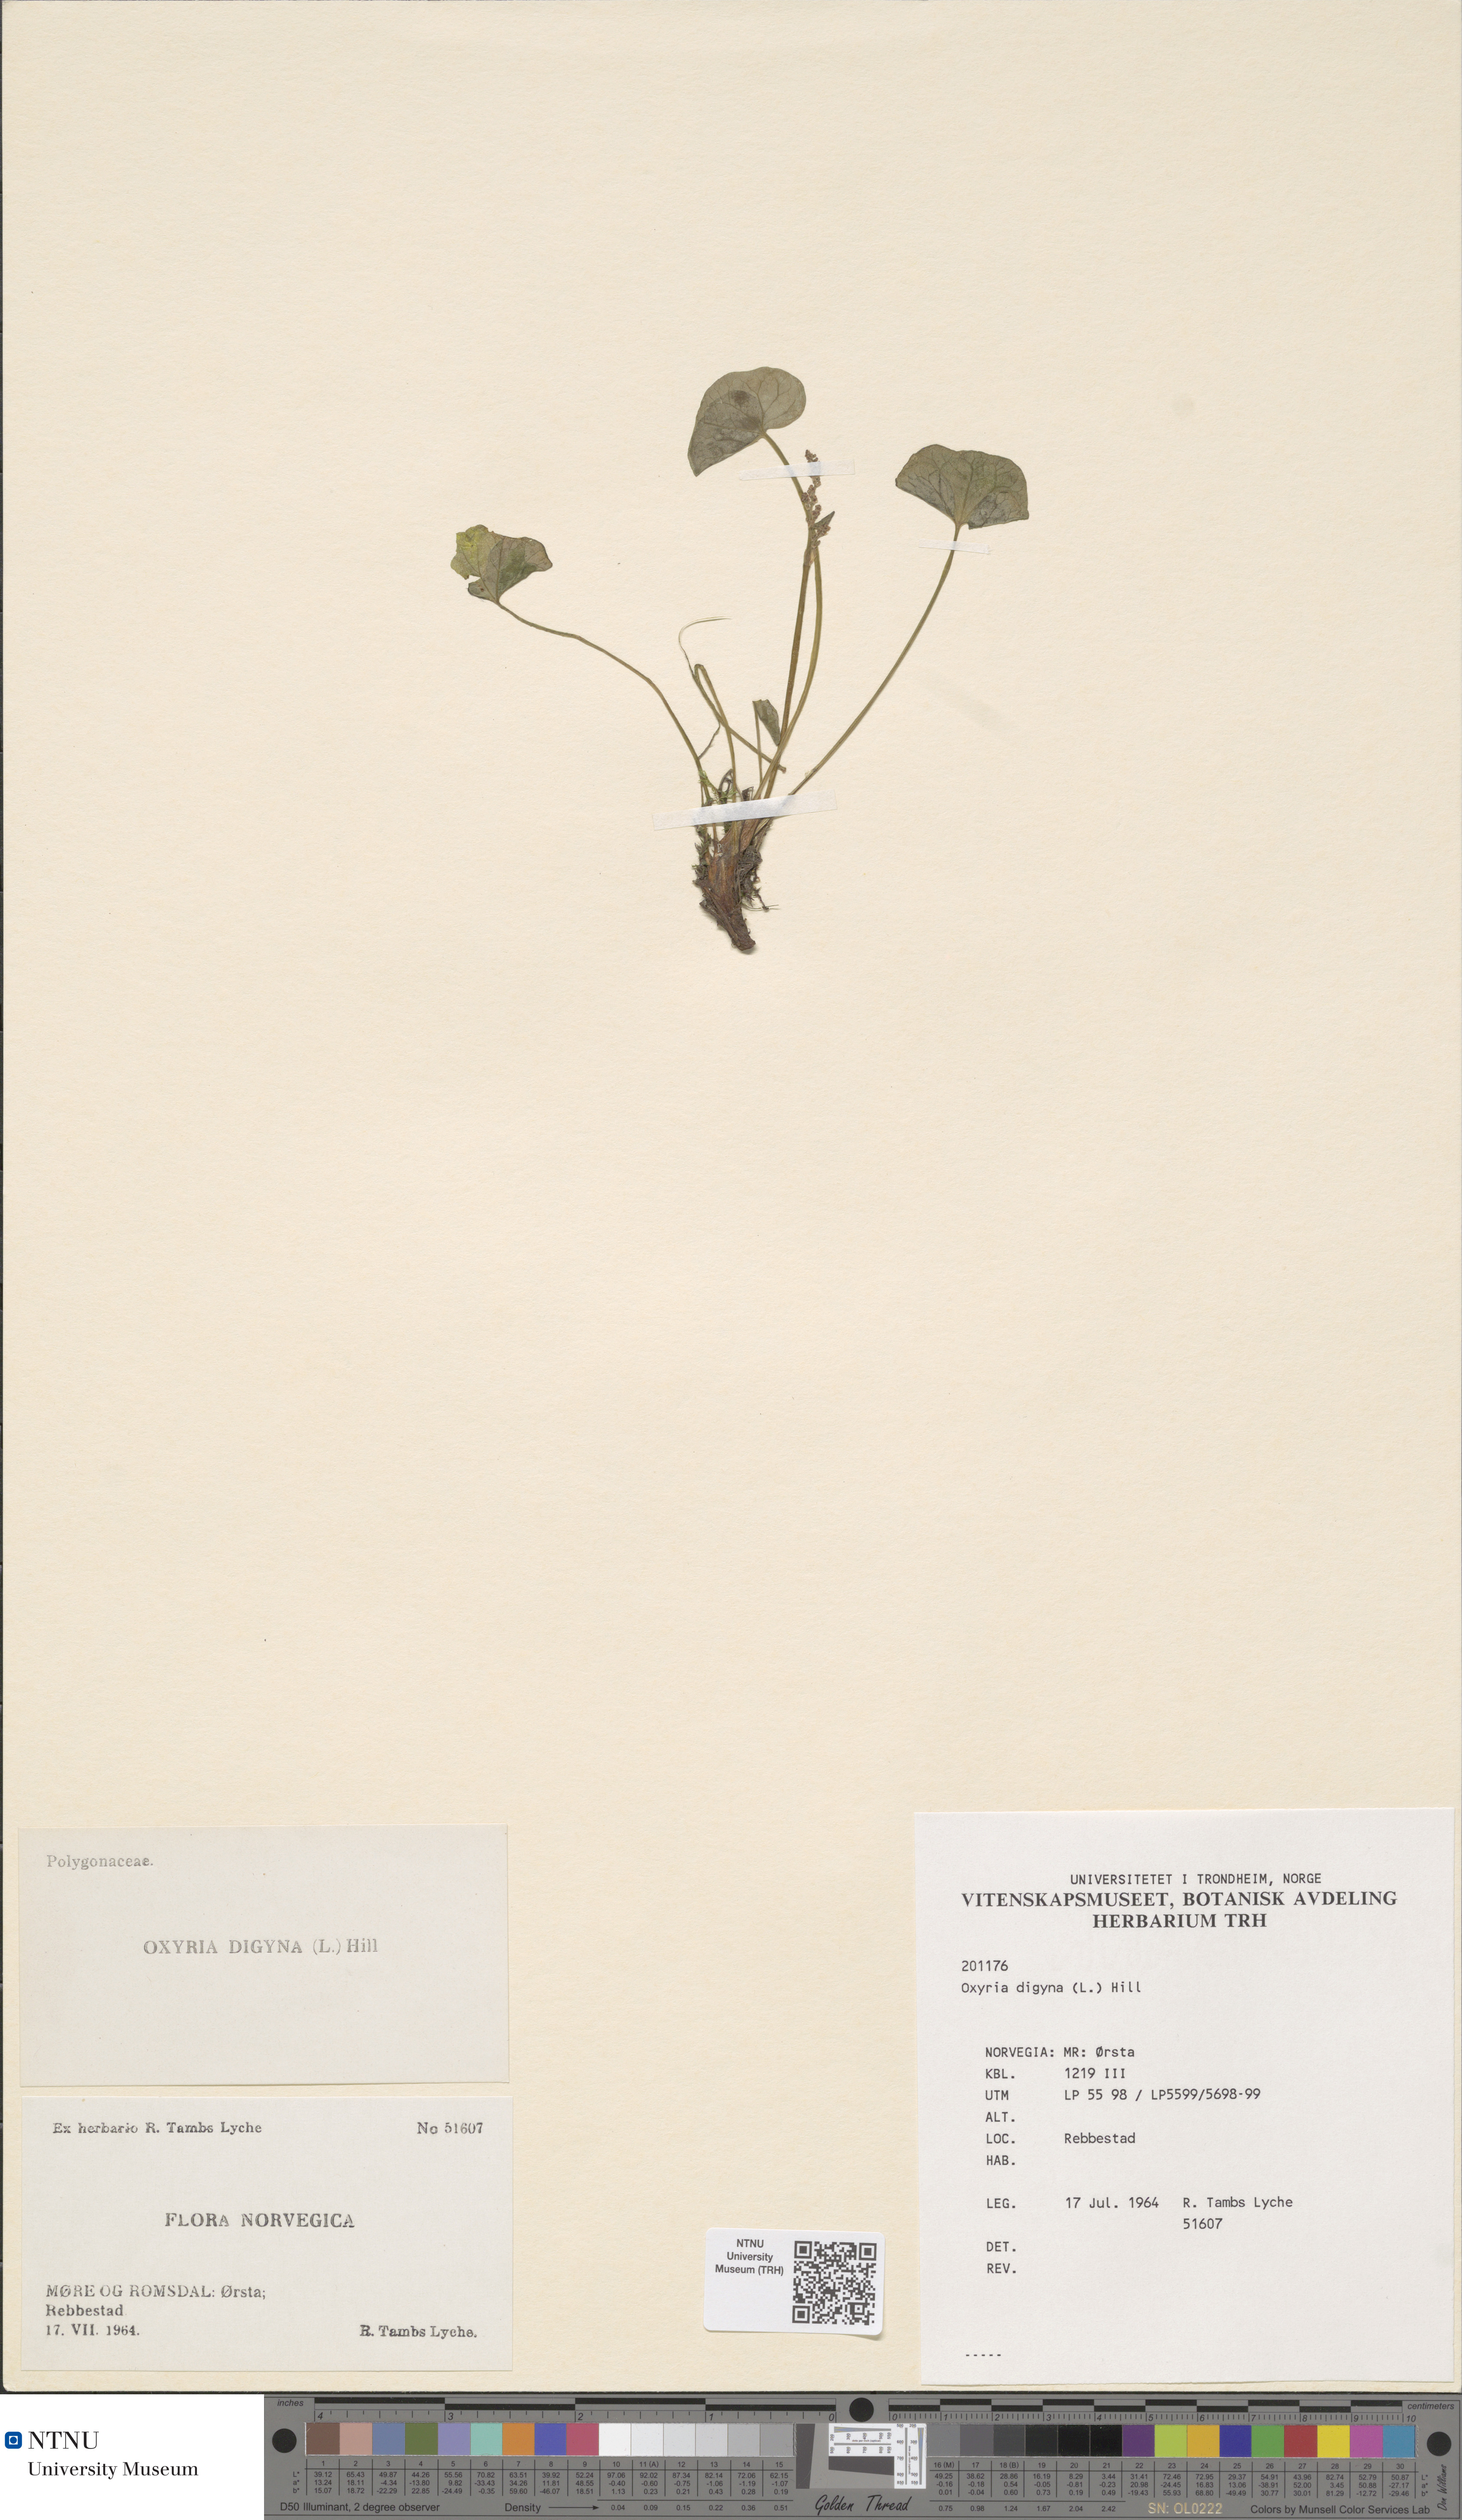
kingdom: Plantae
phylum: Tracheophyta
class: Magnoliopsida
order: Caryophyllales
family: Polygonaceae
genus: Oxyria
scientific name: Oxyria digyna
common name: Alpine mountain-sorrel
